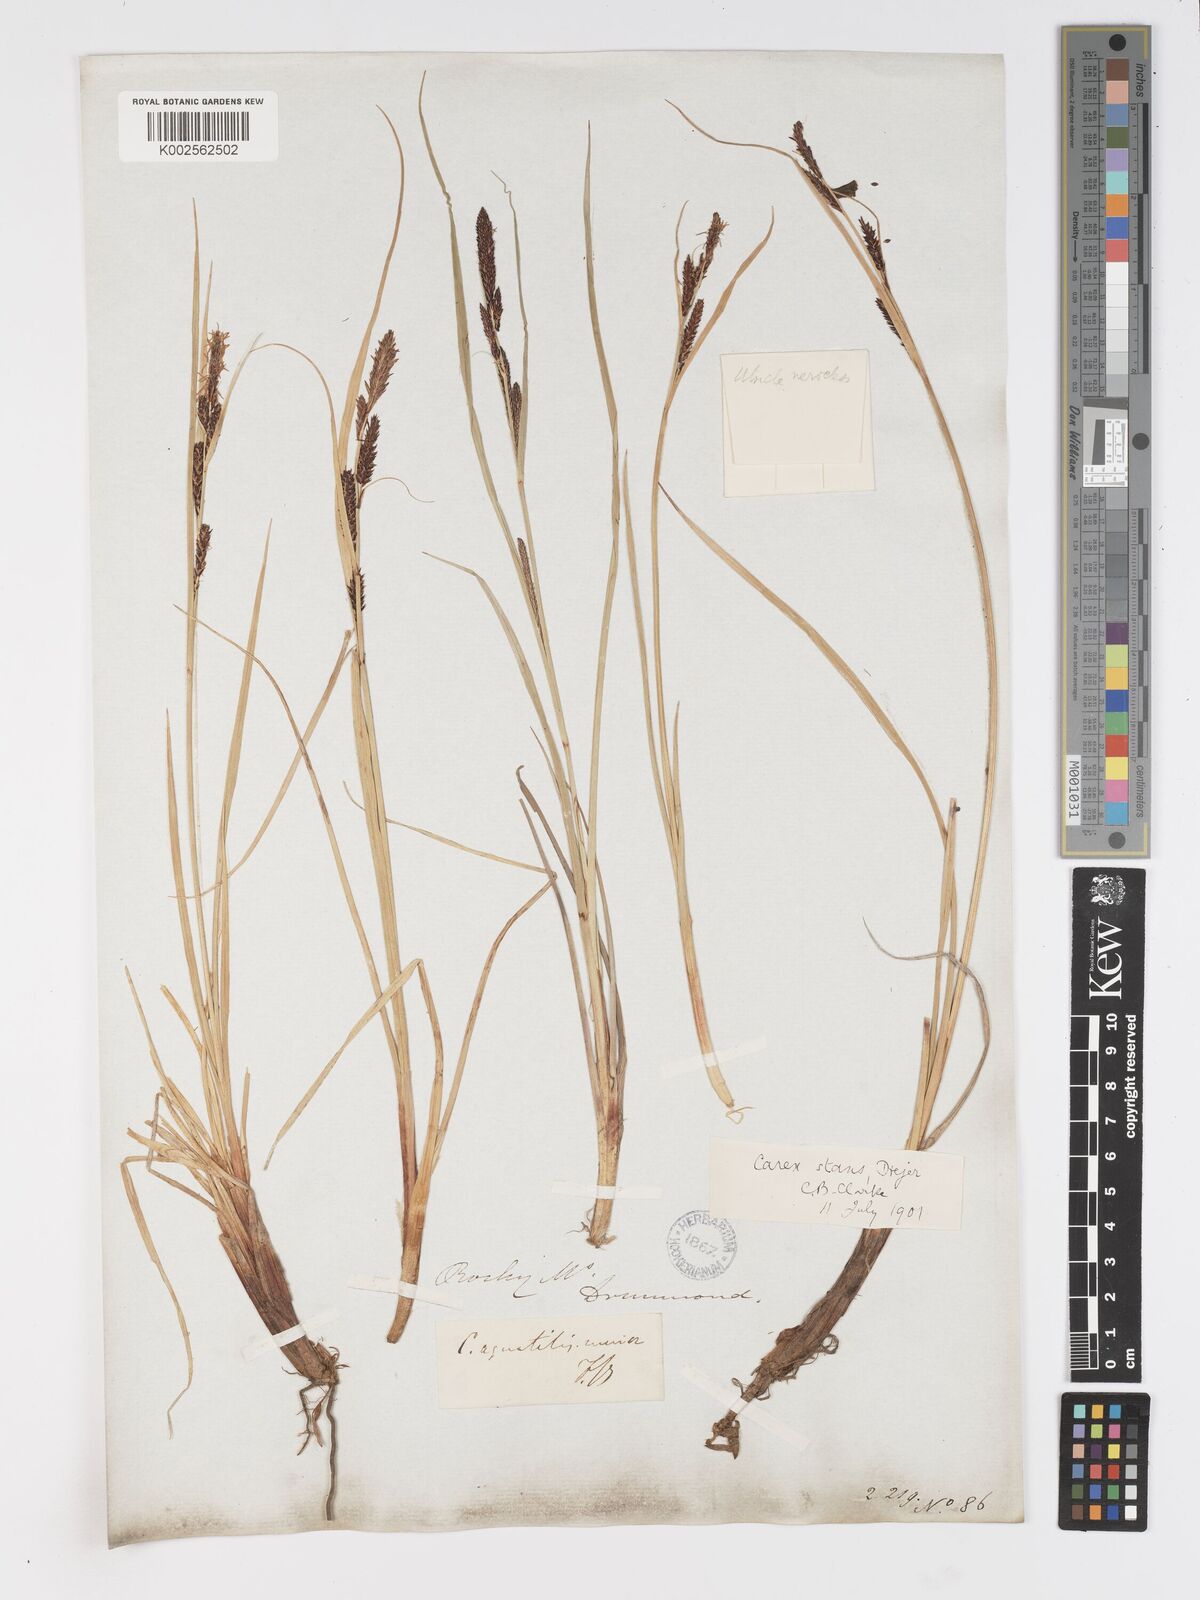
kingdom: Plantae
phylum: Tracheophyta
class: Liliopsida
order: Poales
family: Cyperaceae
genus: Carex
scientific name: Carex
